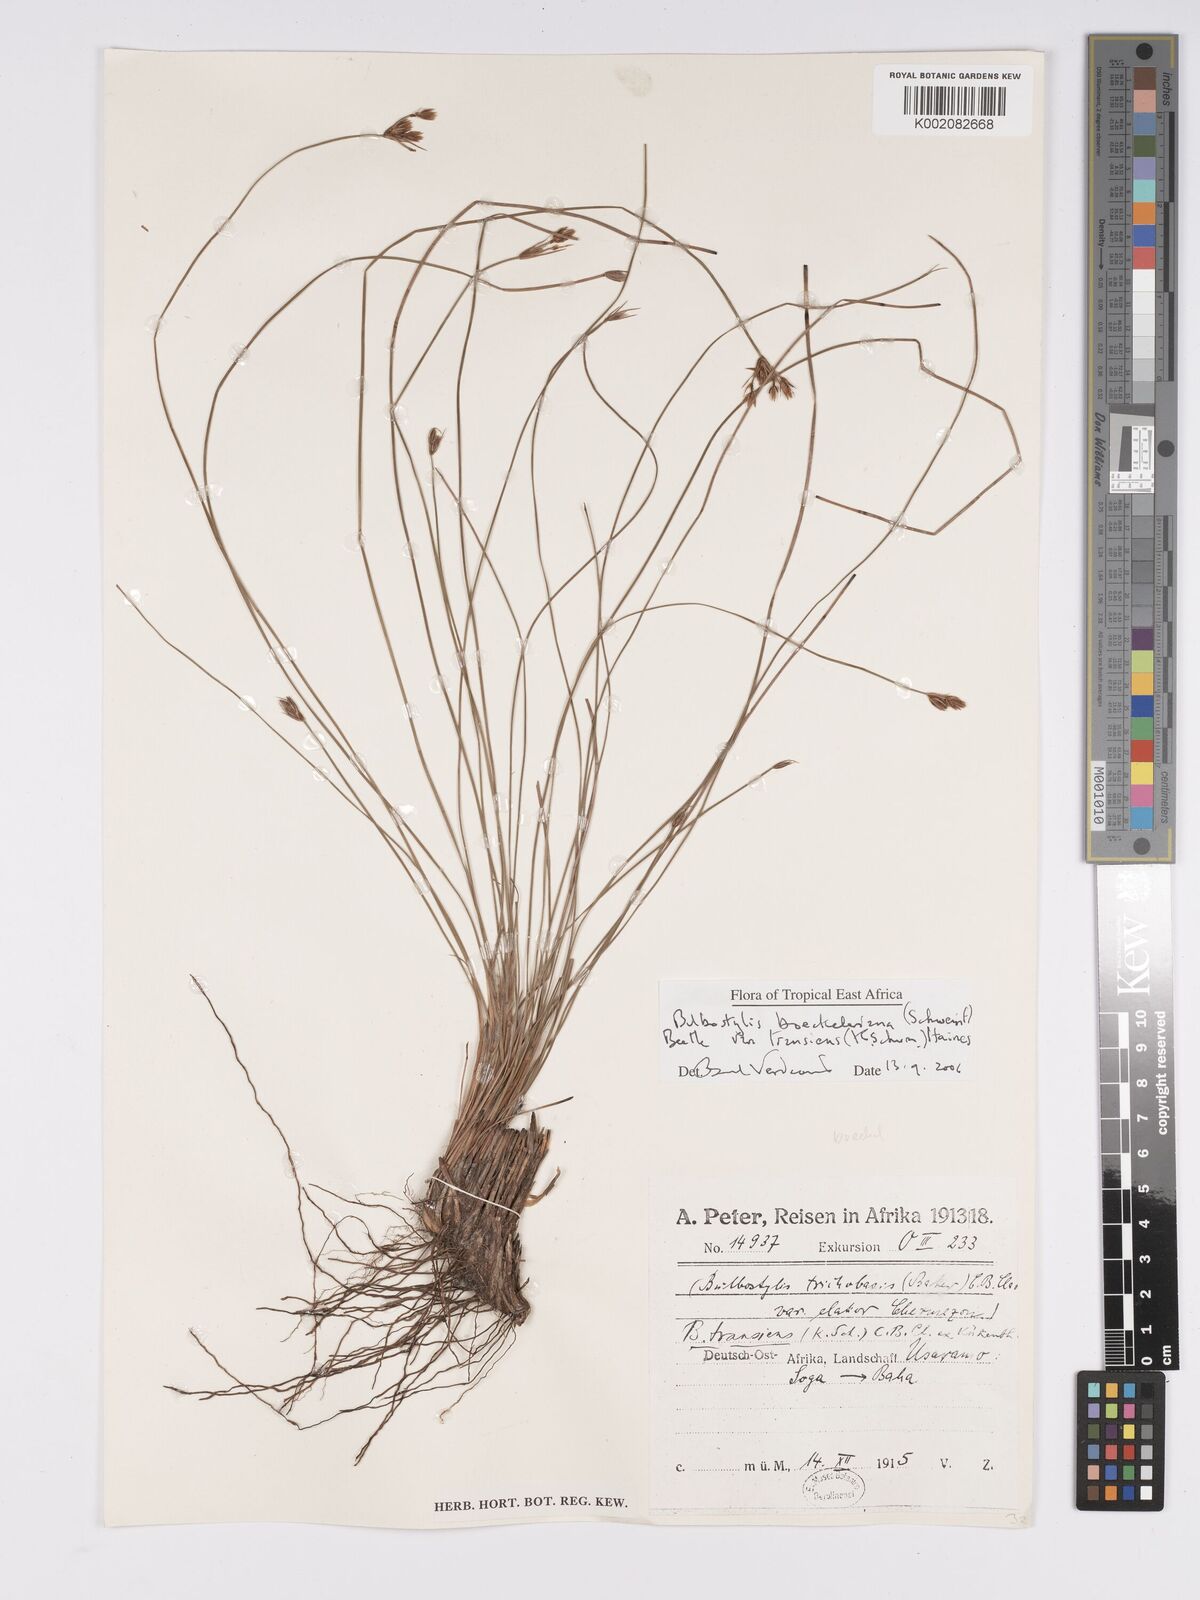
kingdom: Plantae
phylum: Tracheophyta
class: Liliopsida
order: Poales
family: Cyperaceae
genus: Bulbostylis
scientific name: Bulbostylis boeckeleriana
